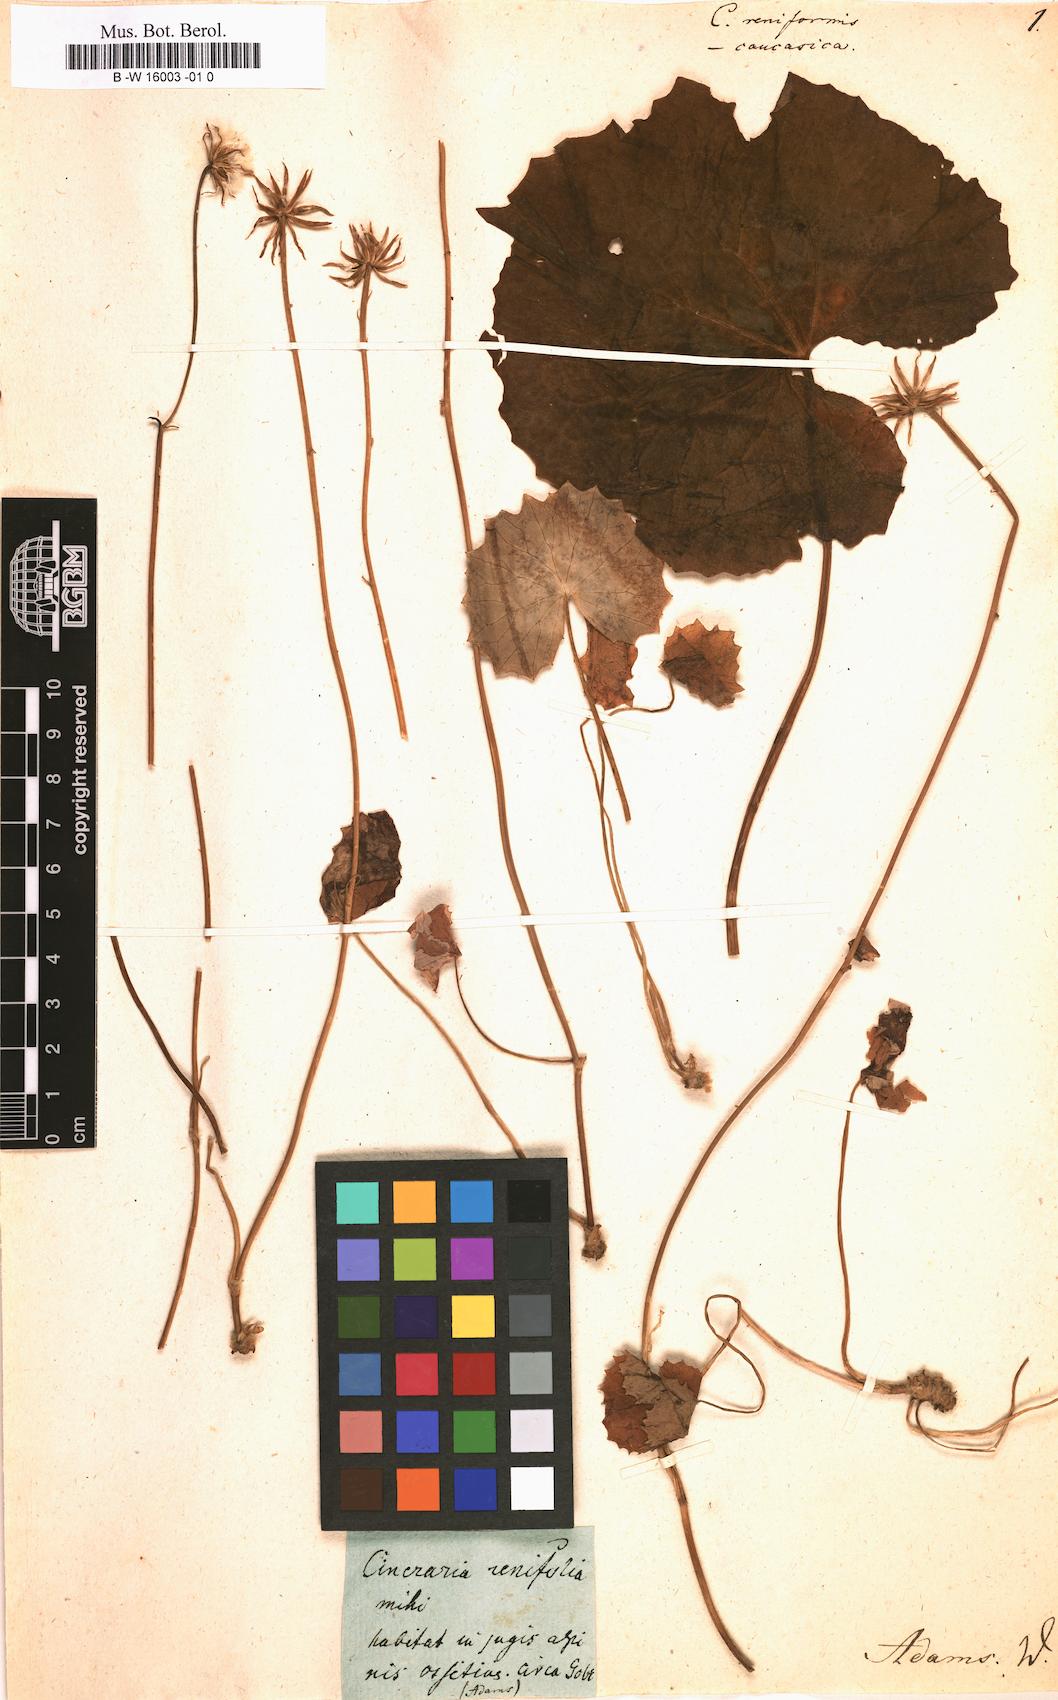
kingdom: Plantae
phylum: Tracheophyta
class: Magnoliopsida
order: Asterales
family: Asteraceae
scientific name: Asteraceae
